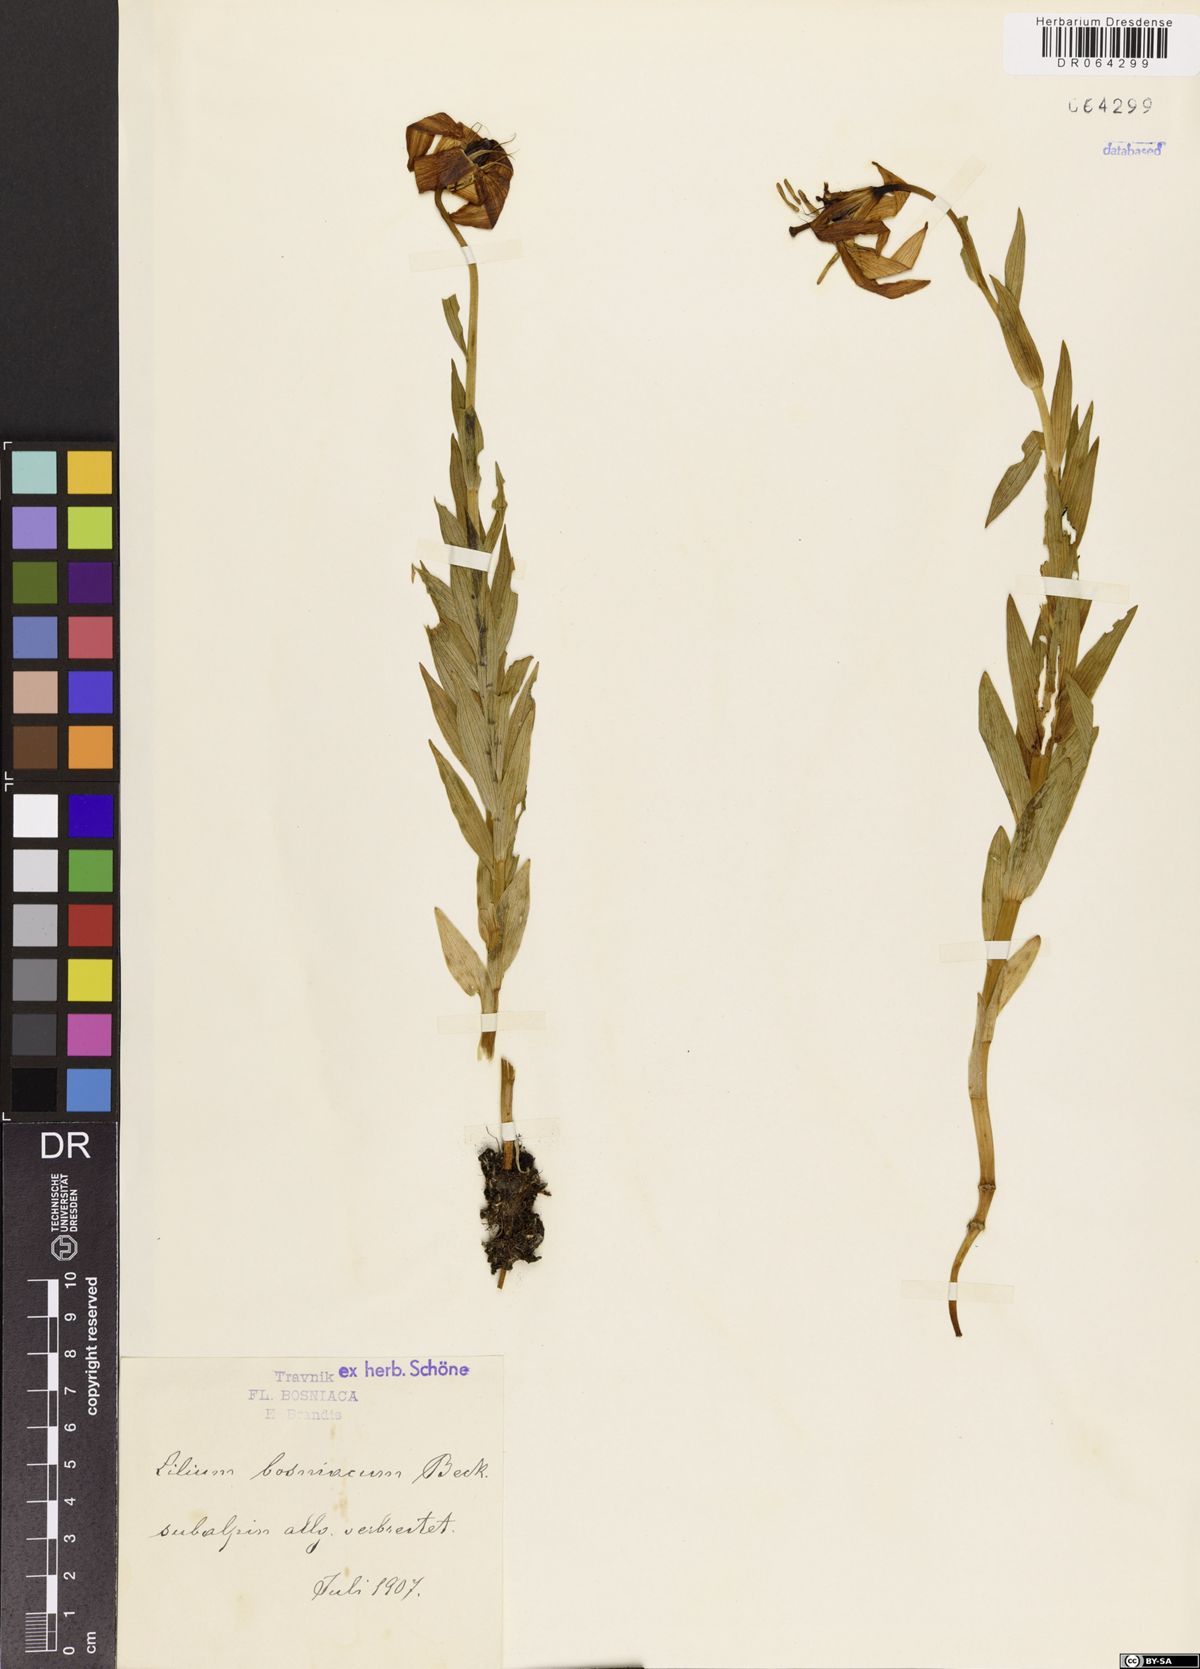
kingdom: Plantae
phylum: Tracheophyta
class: Liliopsida
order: Liliales
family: Liliaceae
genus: Lilium
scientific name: Lilium bosniacum
